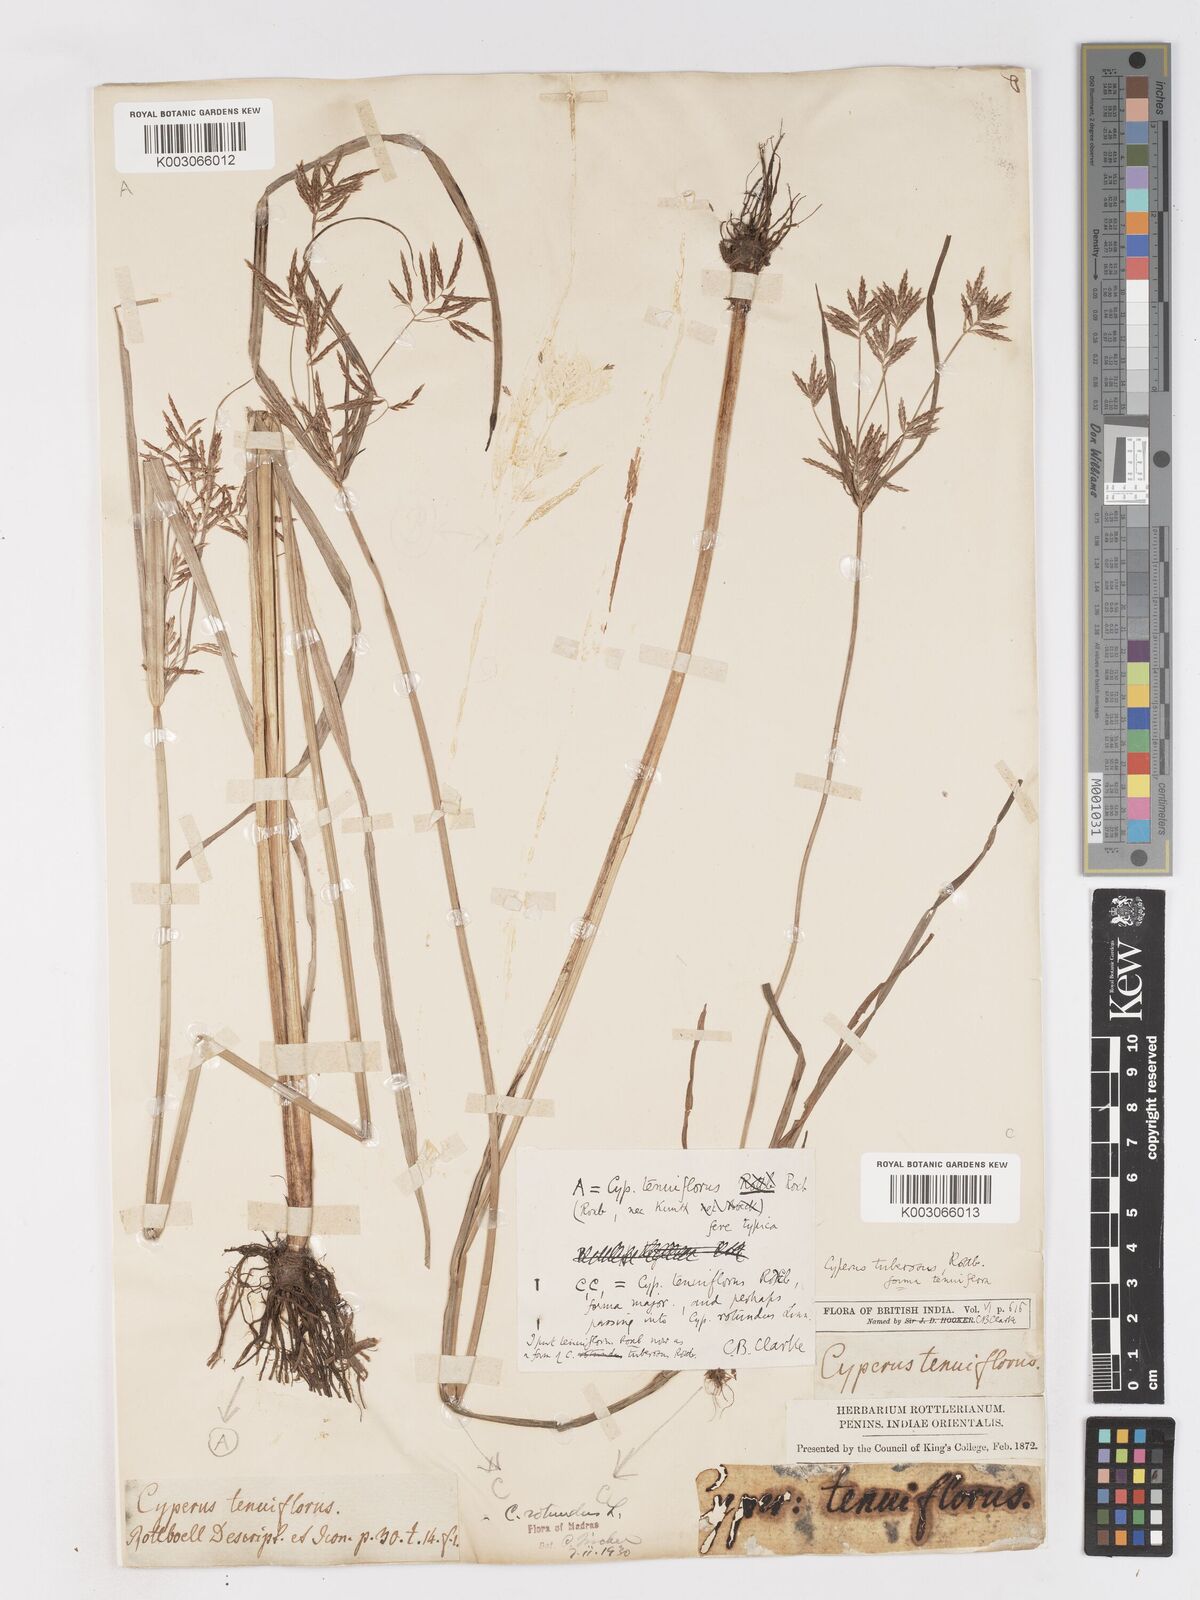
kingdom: Plantae
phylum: Tracheophyta
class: Liliopsida
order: Poales
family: Cyperaceae
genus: Cyperus
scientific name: Cyperus mitis
